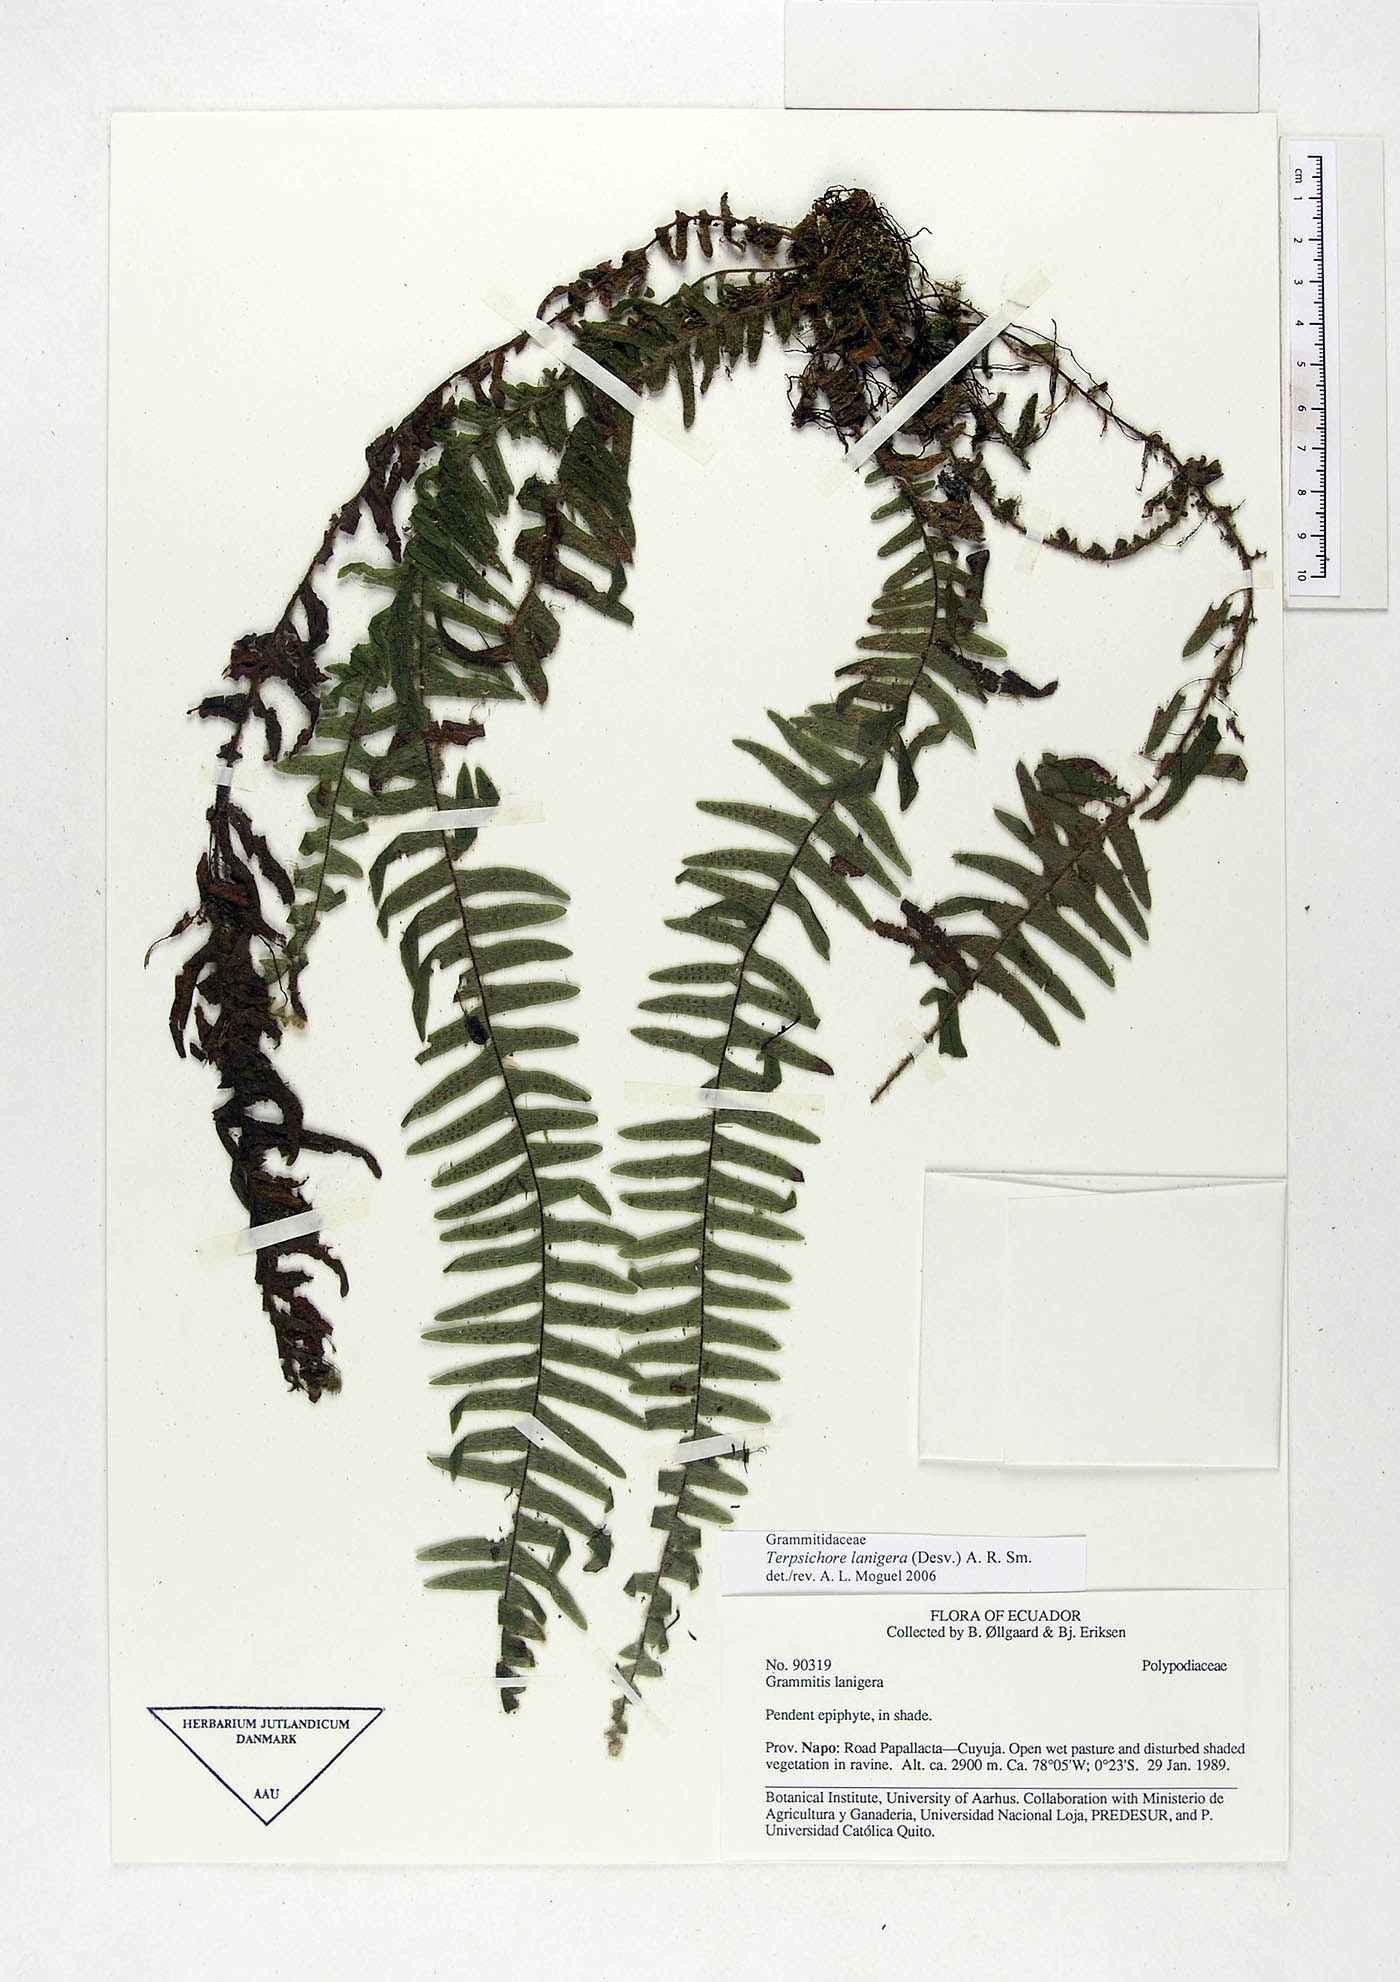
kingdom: Plantae
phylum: Tracheophyta
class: Polypodiopsida
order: Polypodiales
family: Polypodiaceae
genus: Alansmia
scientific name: Alansmia lanigera
